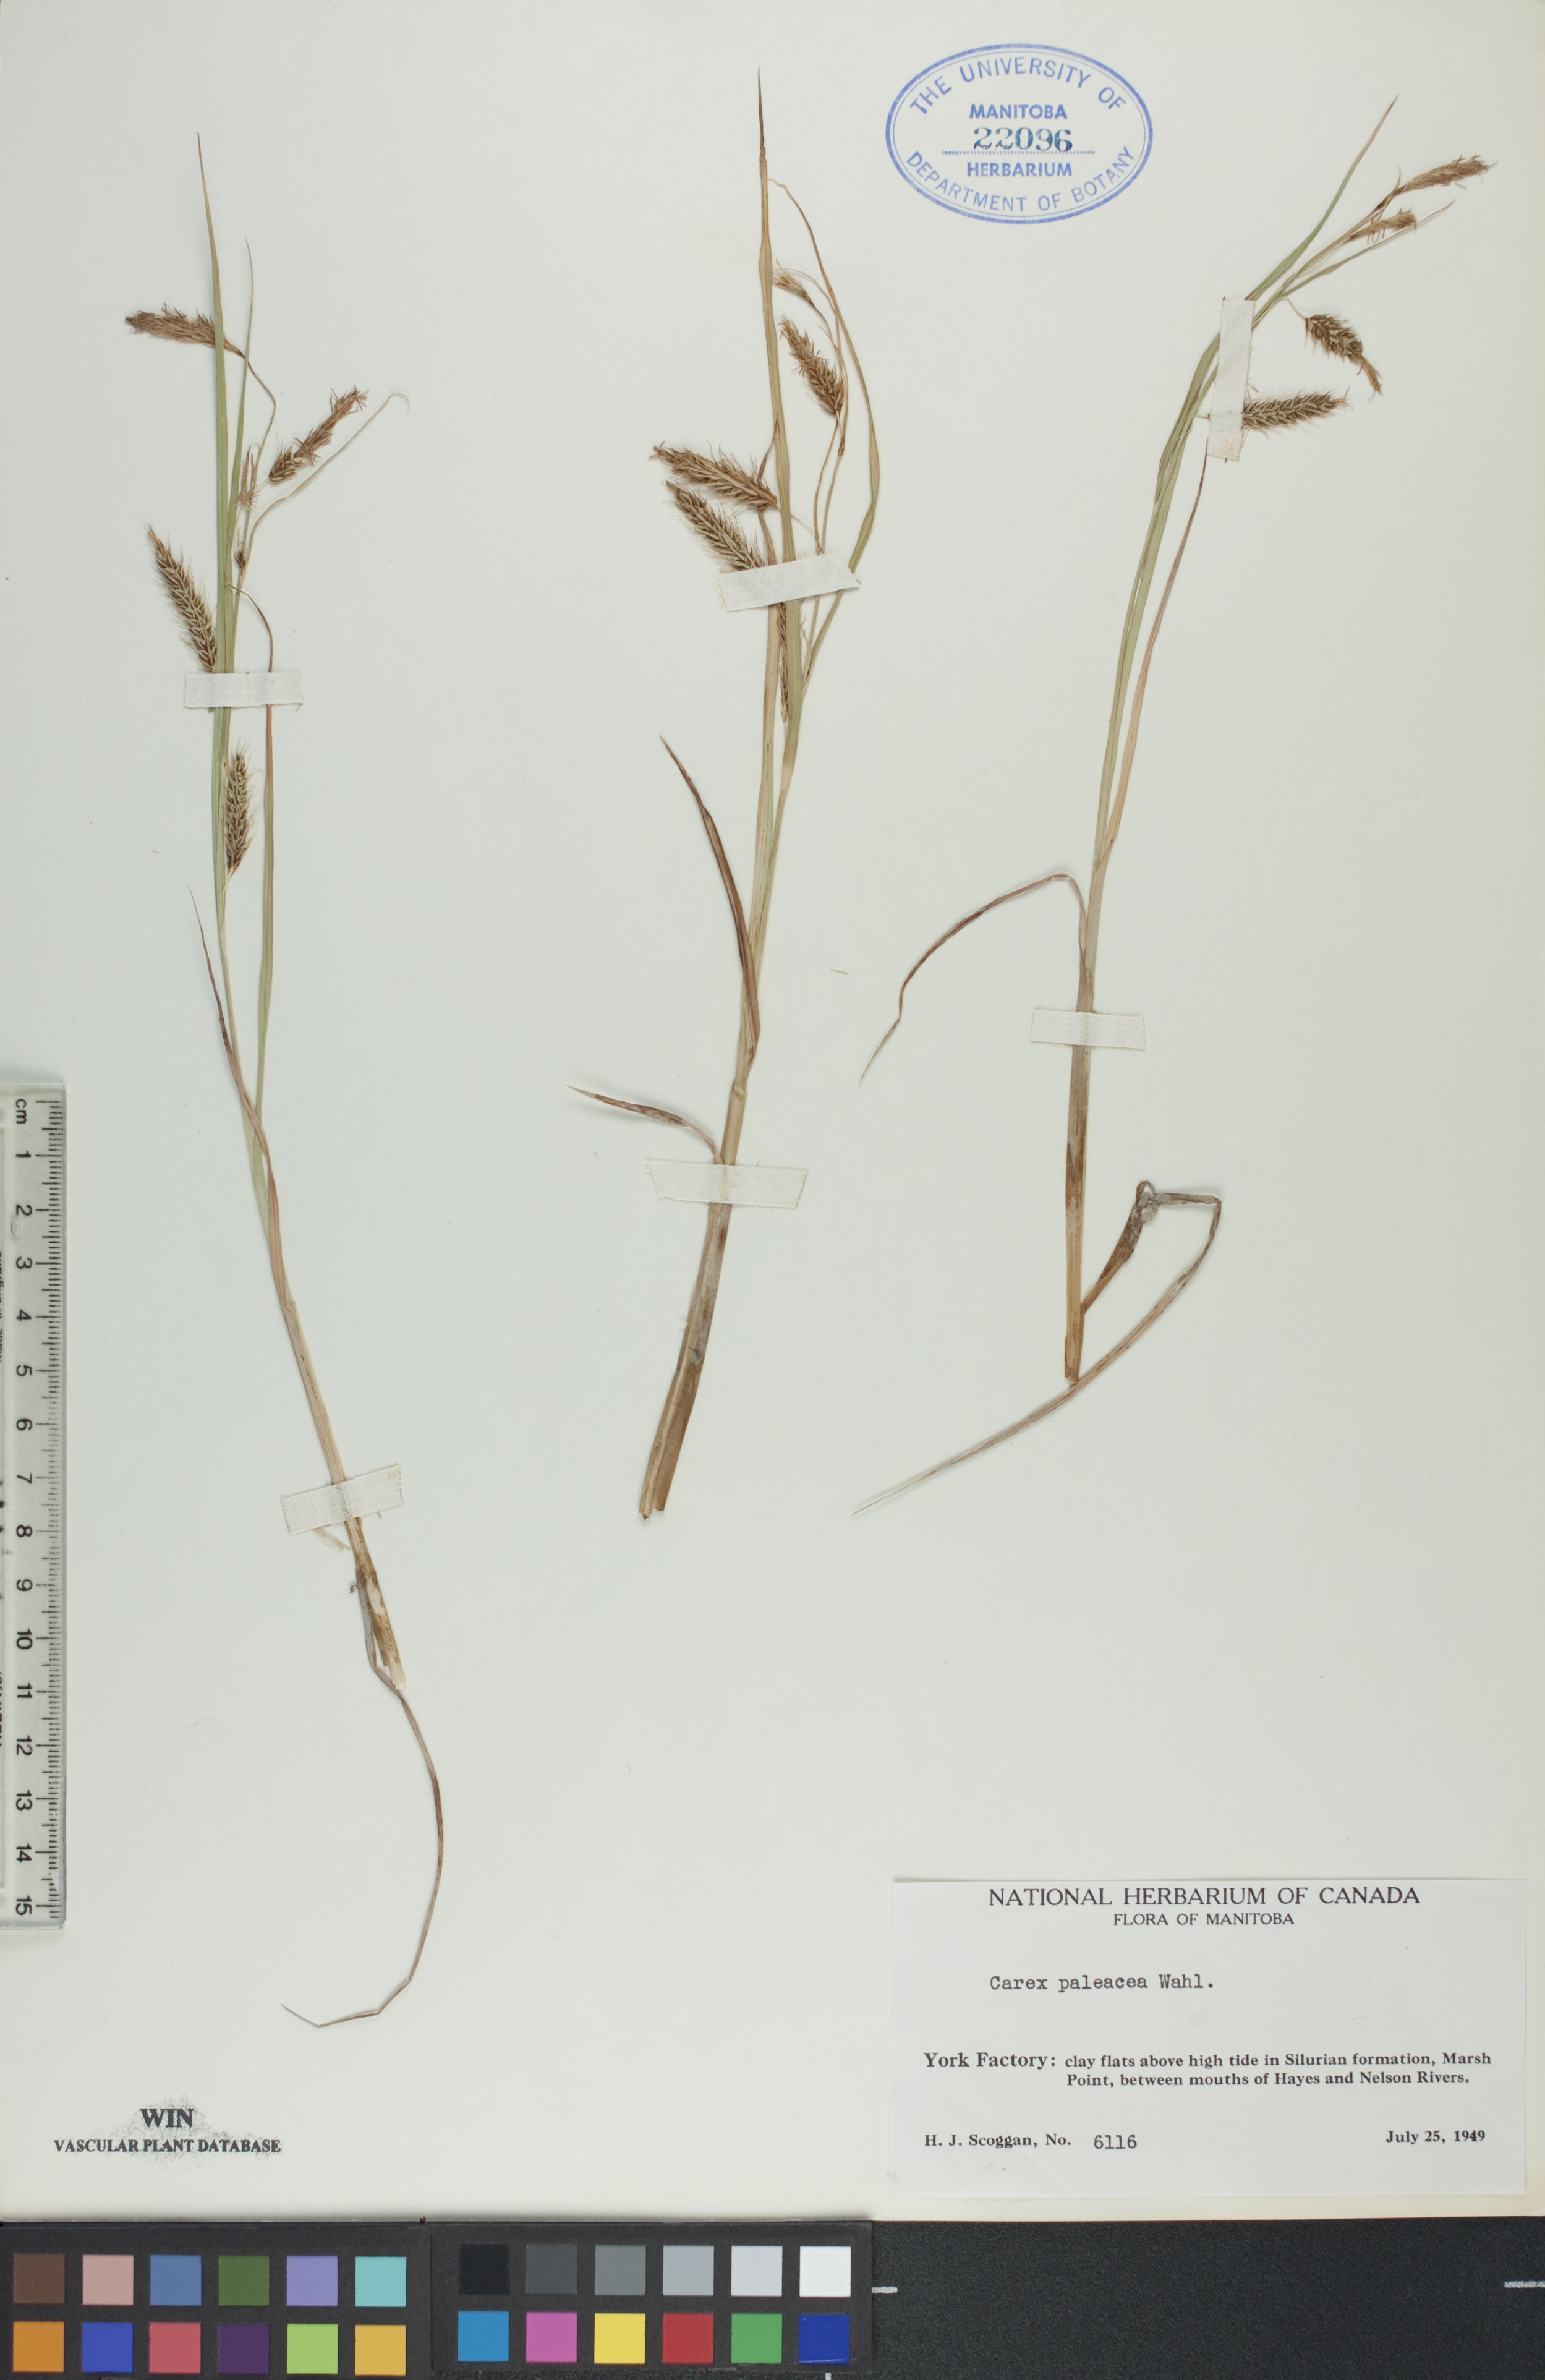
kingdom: Plantae
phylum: Tracheophyta
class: Liliopsida
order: Poales
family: Cyperaceae
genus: Carex
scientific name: Carex paleacea
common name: Chaffy sedge
